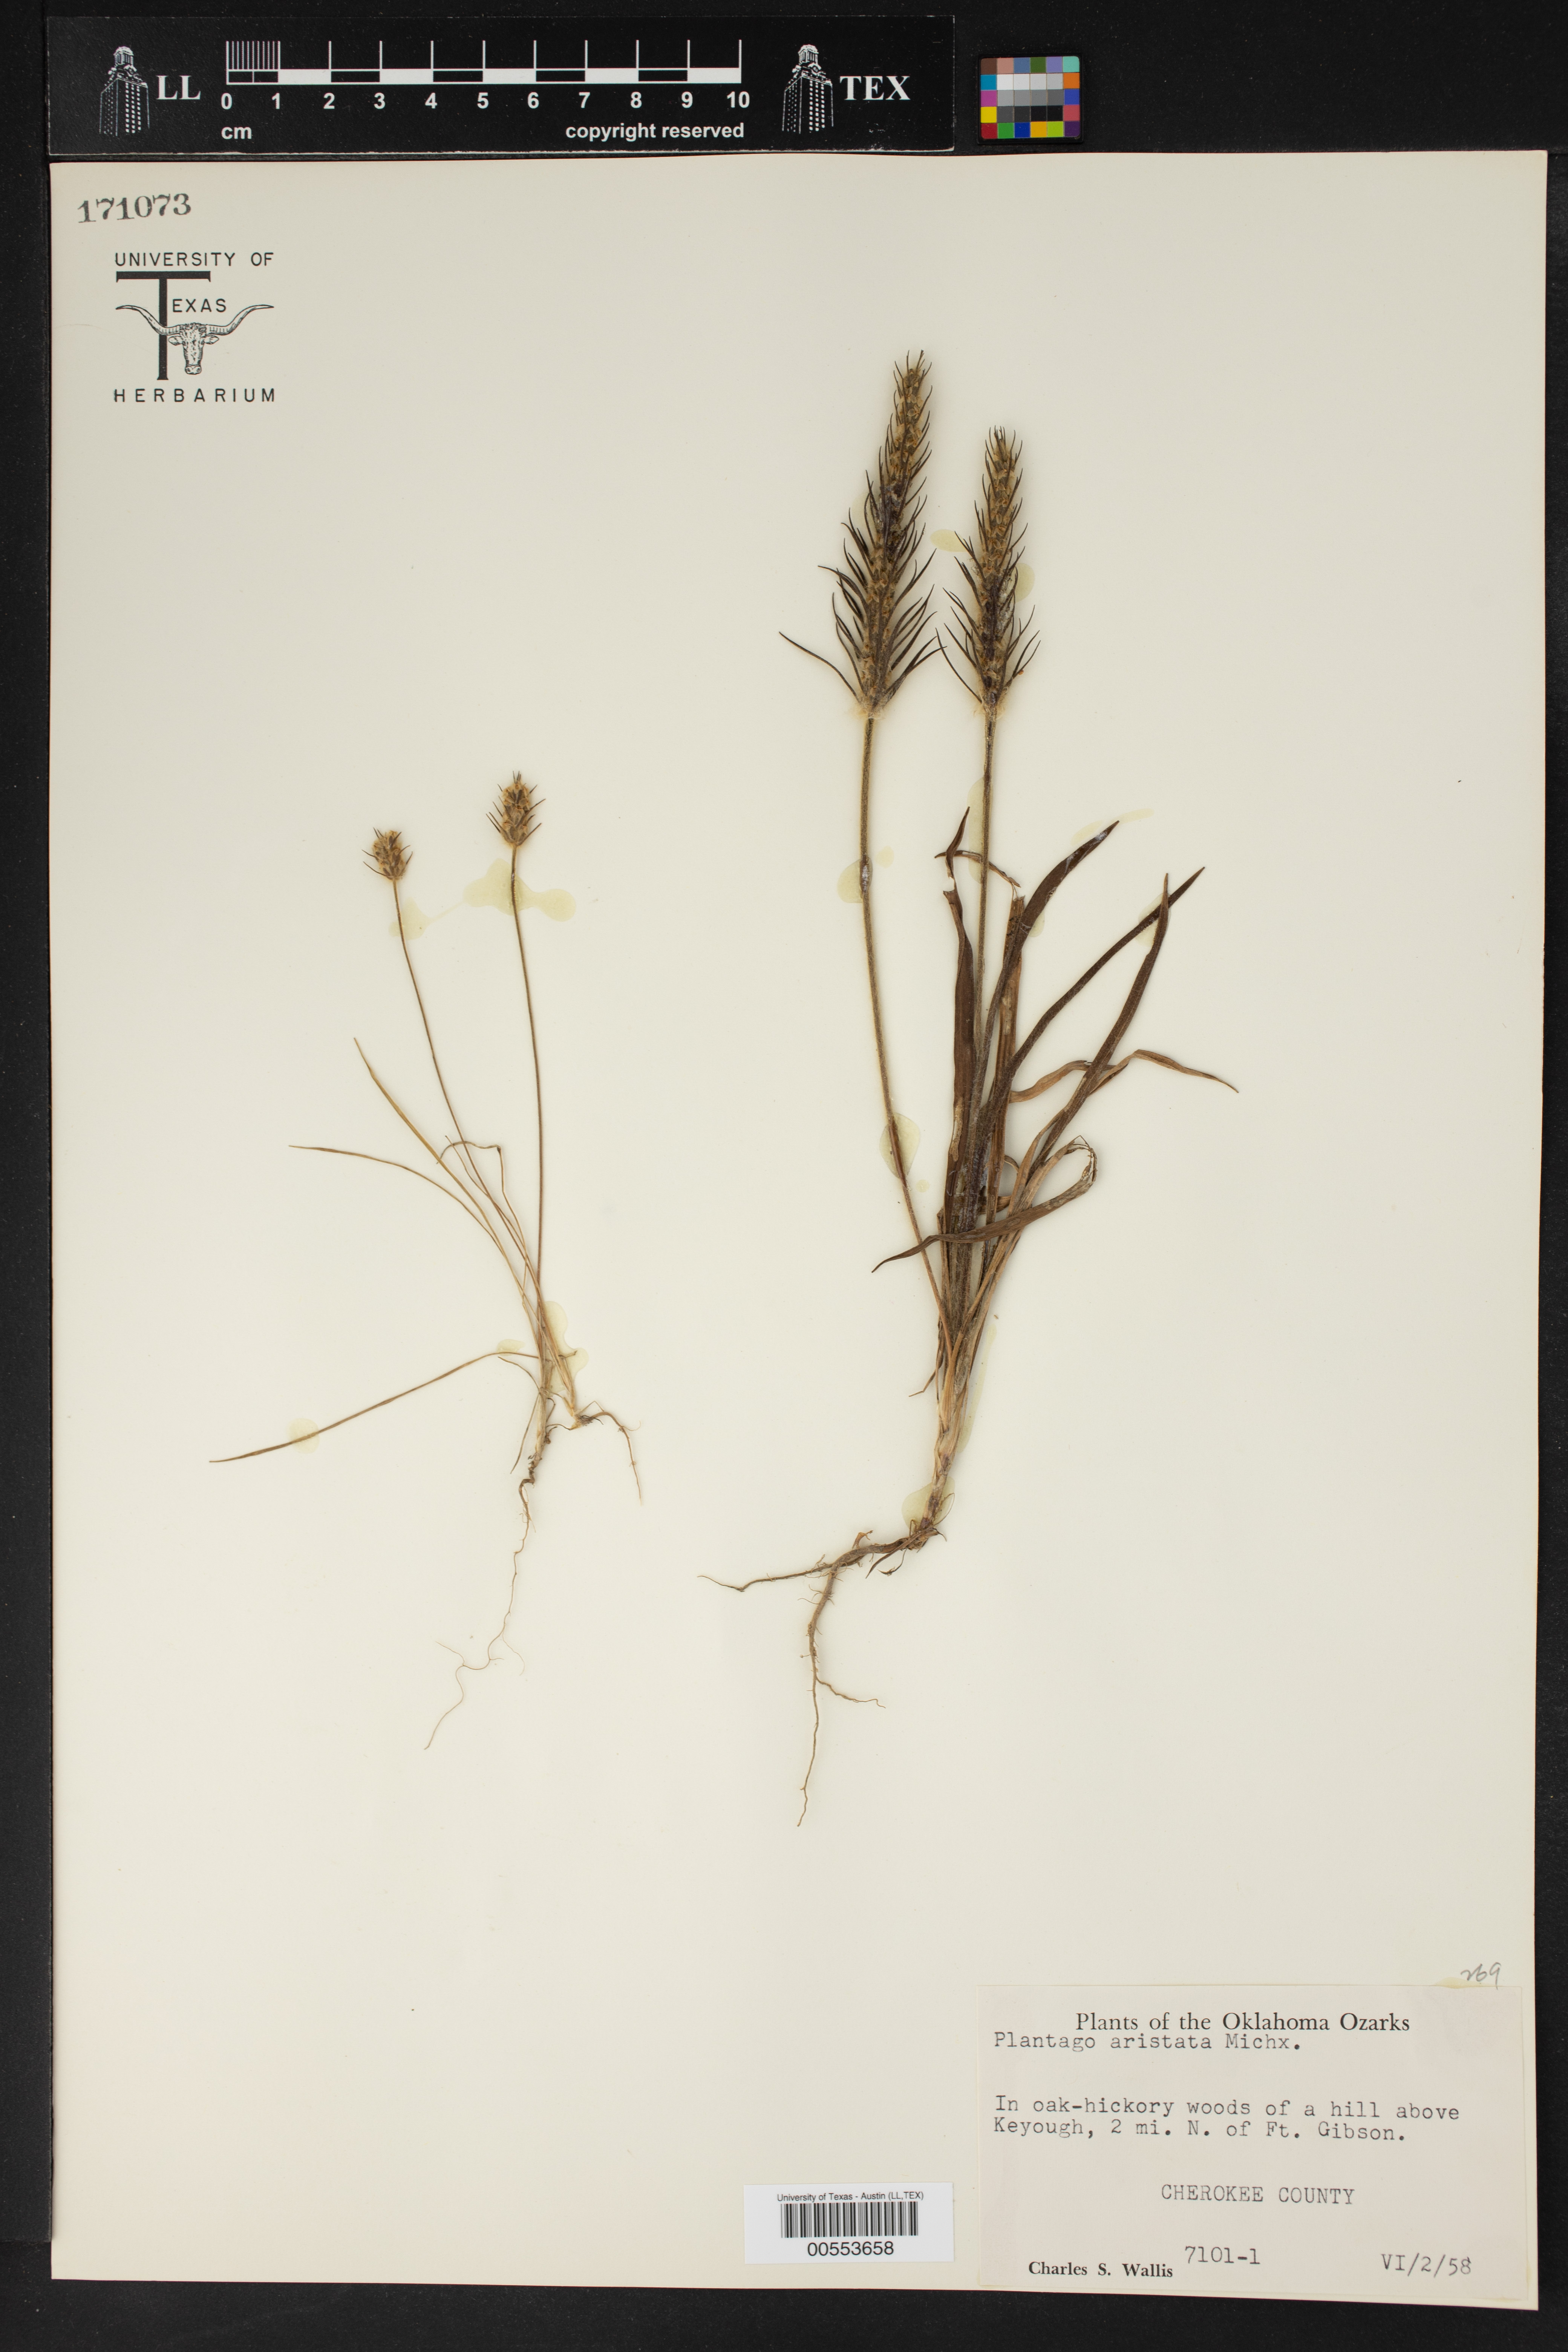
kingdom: Plantae
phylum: Tracheophyta
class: Magnoliopsida
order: Lamiales
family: Plantaginaceae
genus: Plantago
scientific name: Plantago aristata
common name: Bracted plantain
